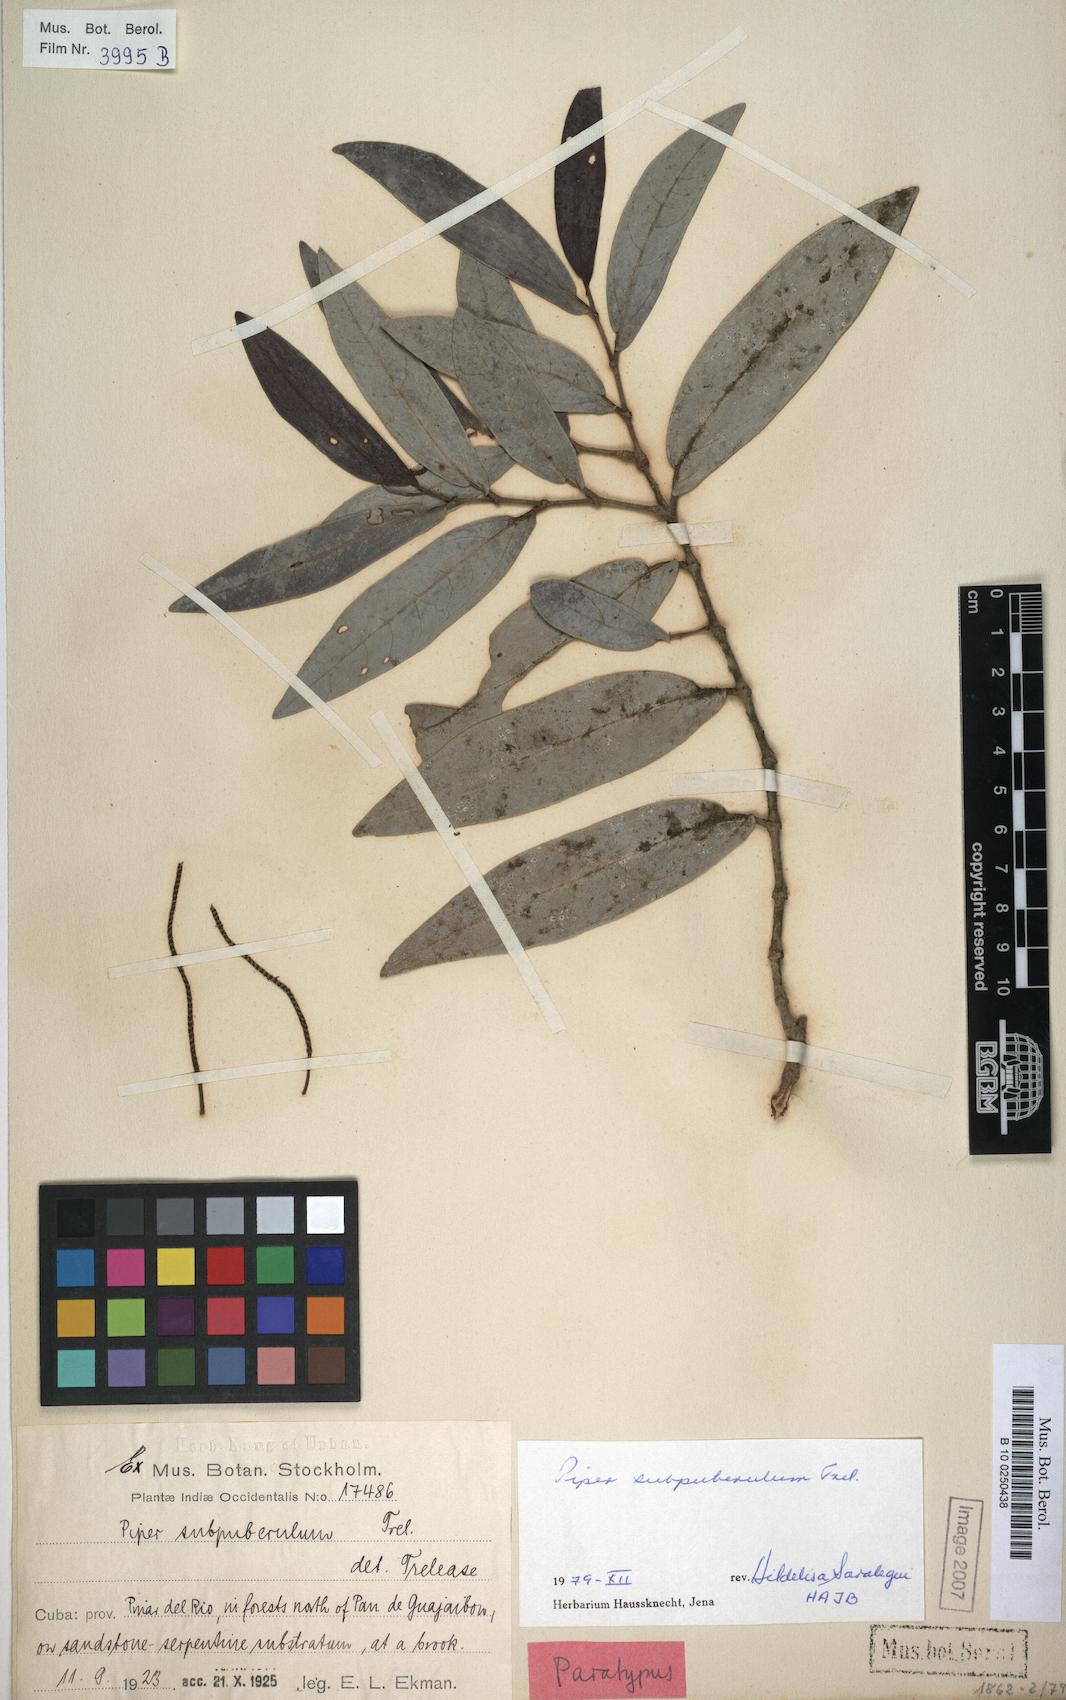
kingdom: Plantae
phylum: Tracheophyta
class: Magnoliopsida
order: Piperales
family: Piperaceae
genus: Piper
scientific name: Piper arboreum
